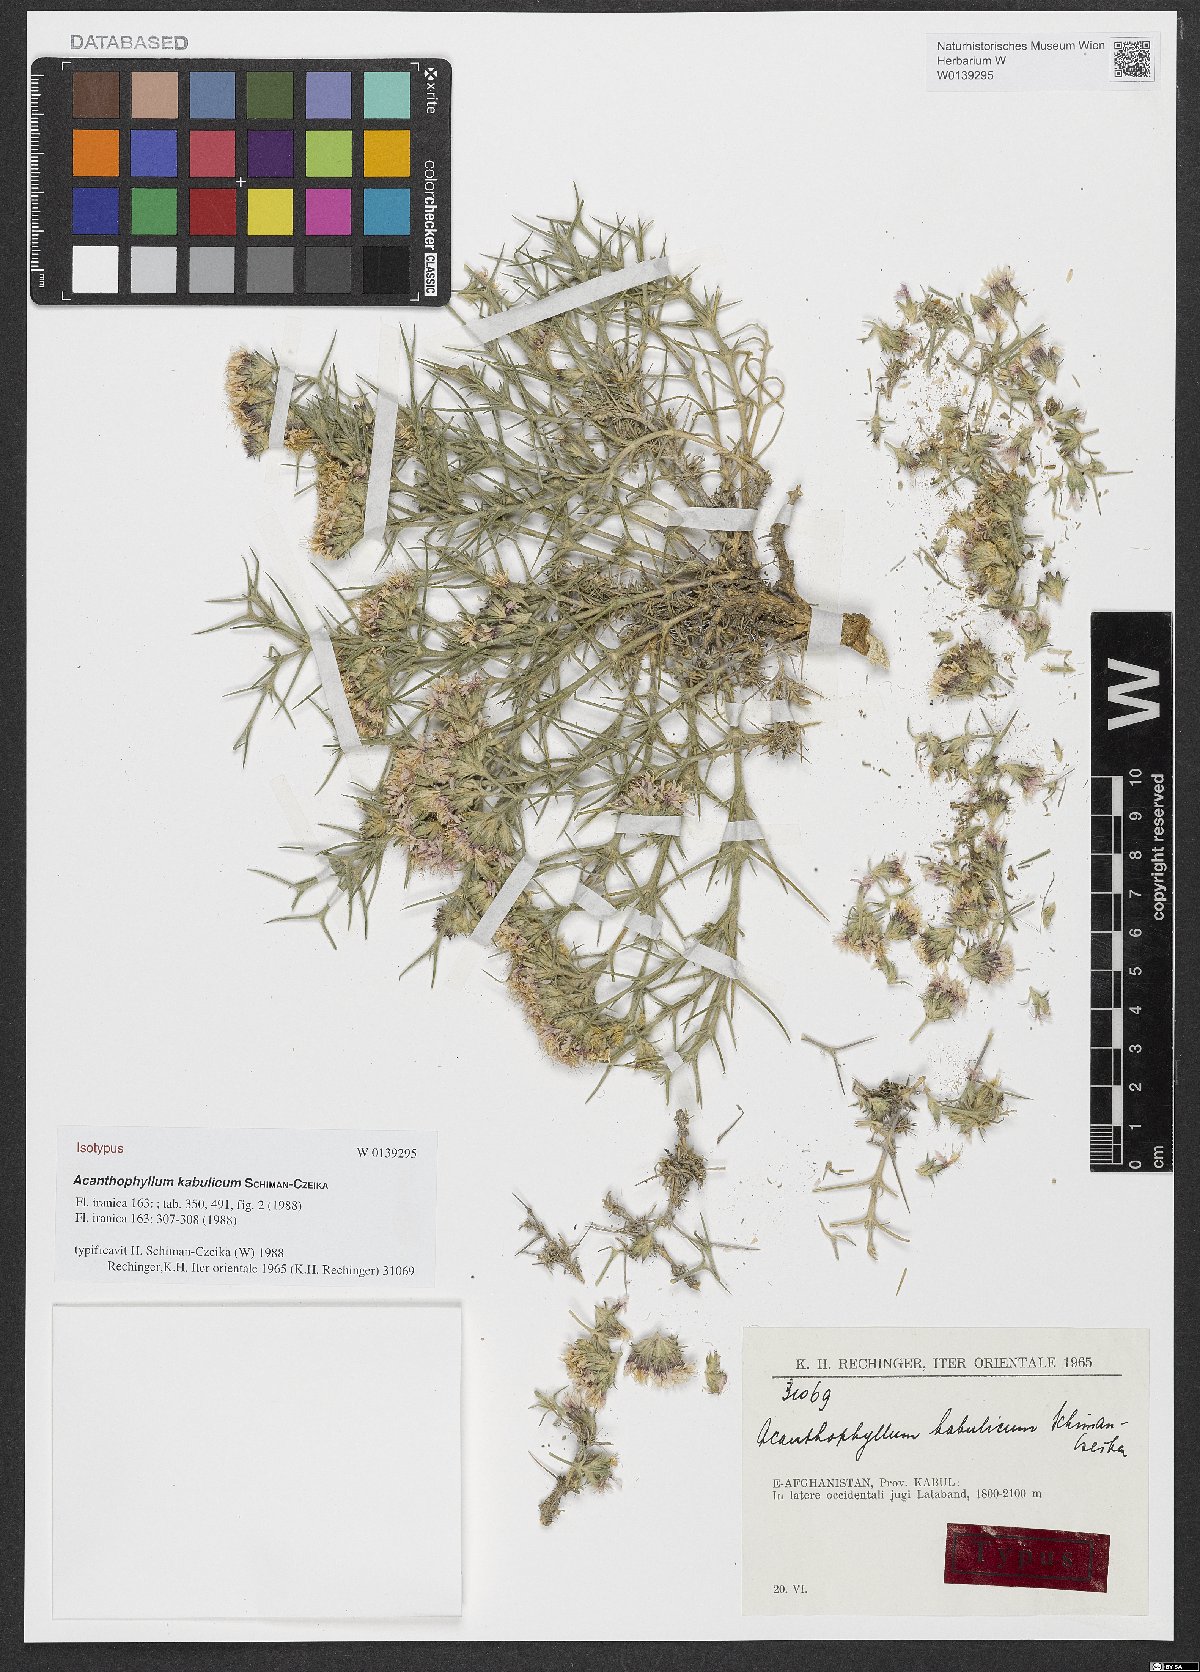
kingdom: Plantae
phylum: Tracheophyta
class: Magnoliopsida
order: Caryophyllales
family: Caryophyllaceae
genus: Acanthophyllum
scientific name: Acanthophyllum kabulicum
